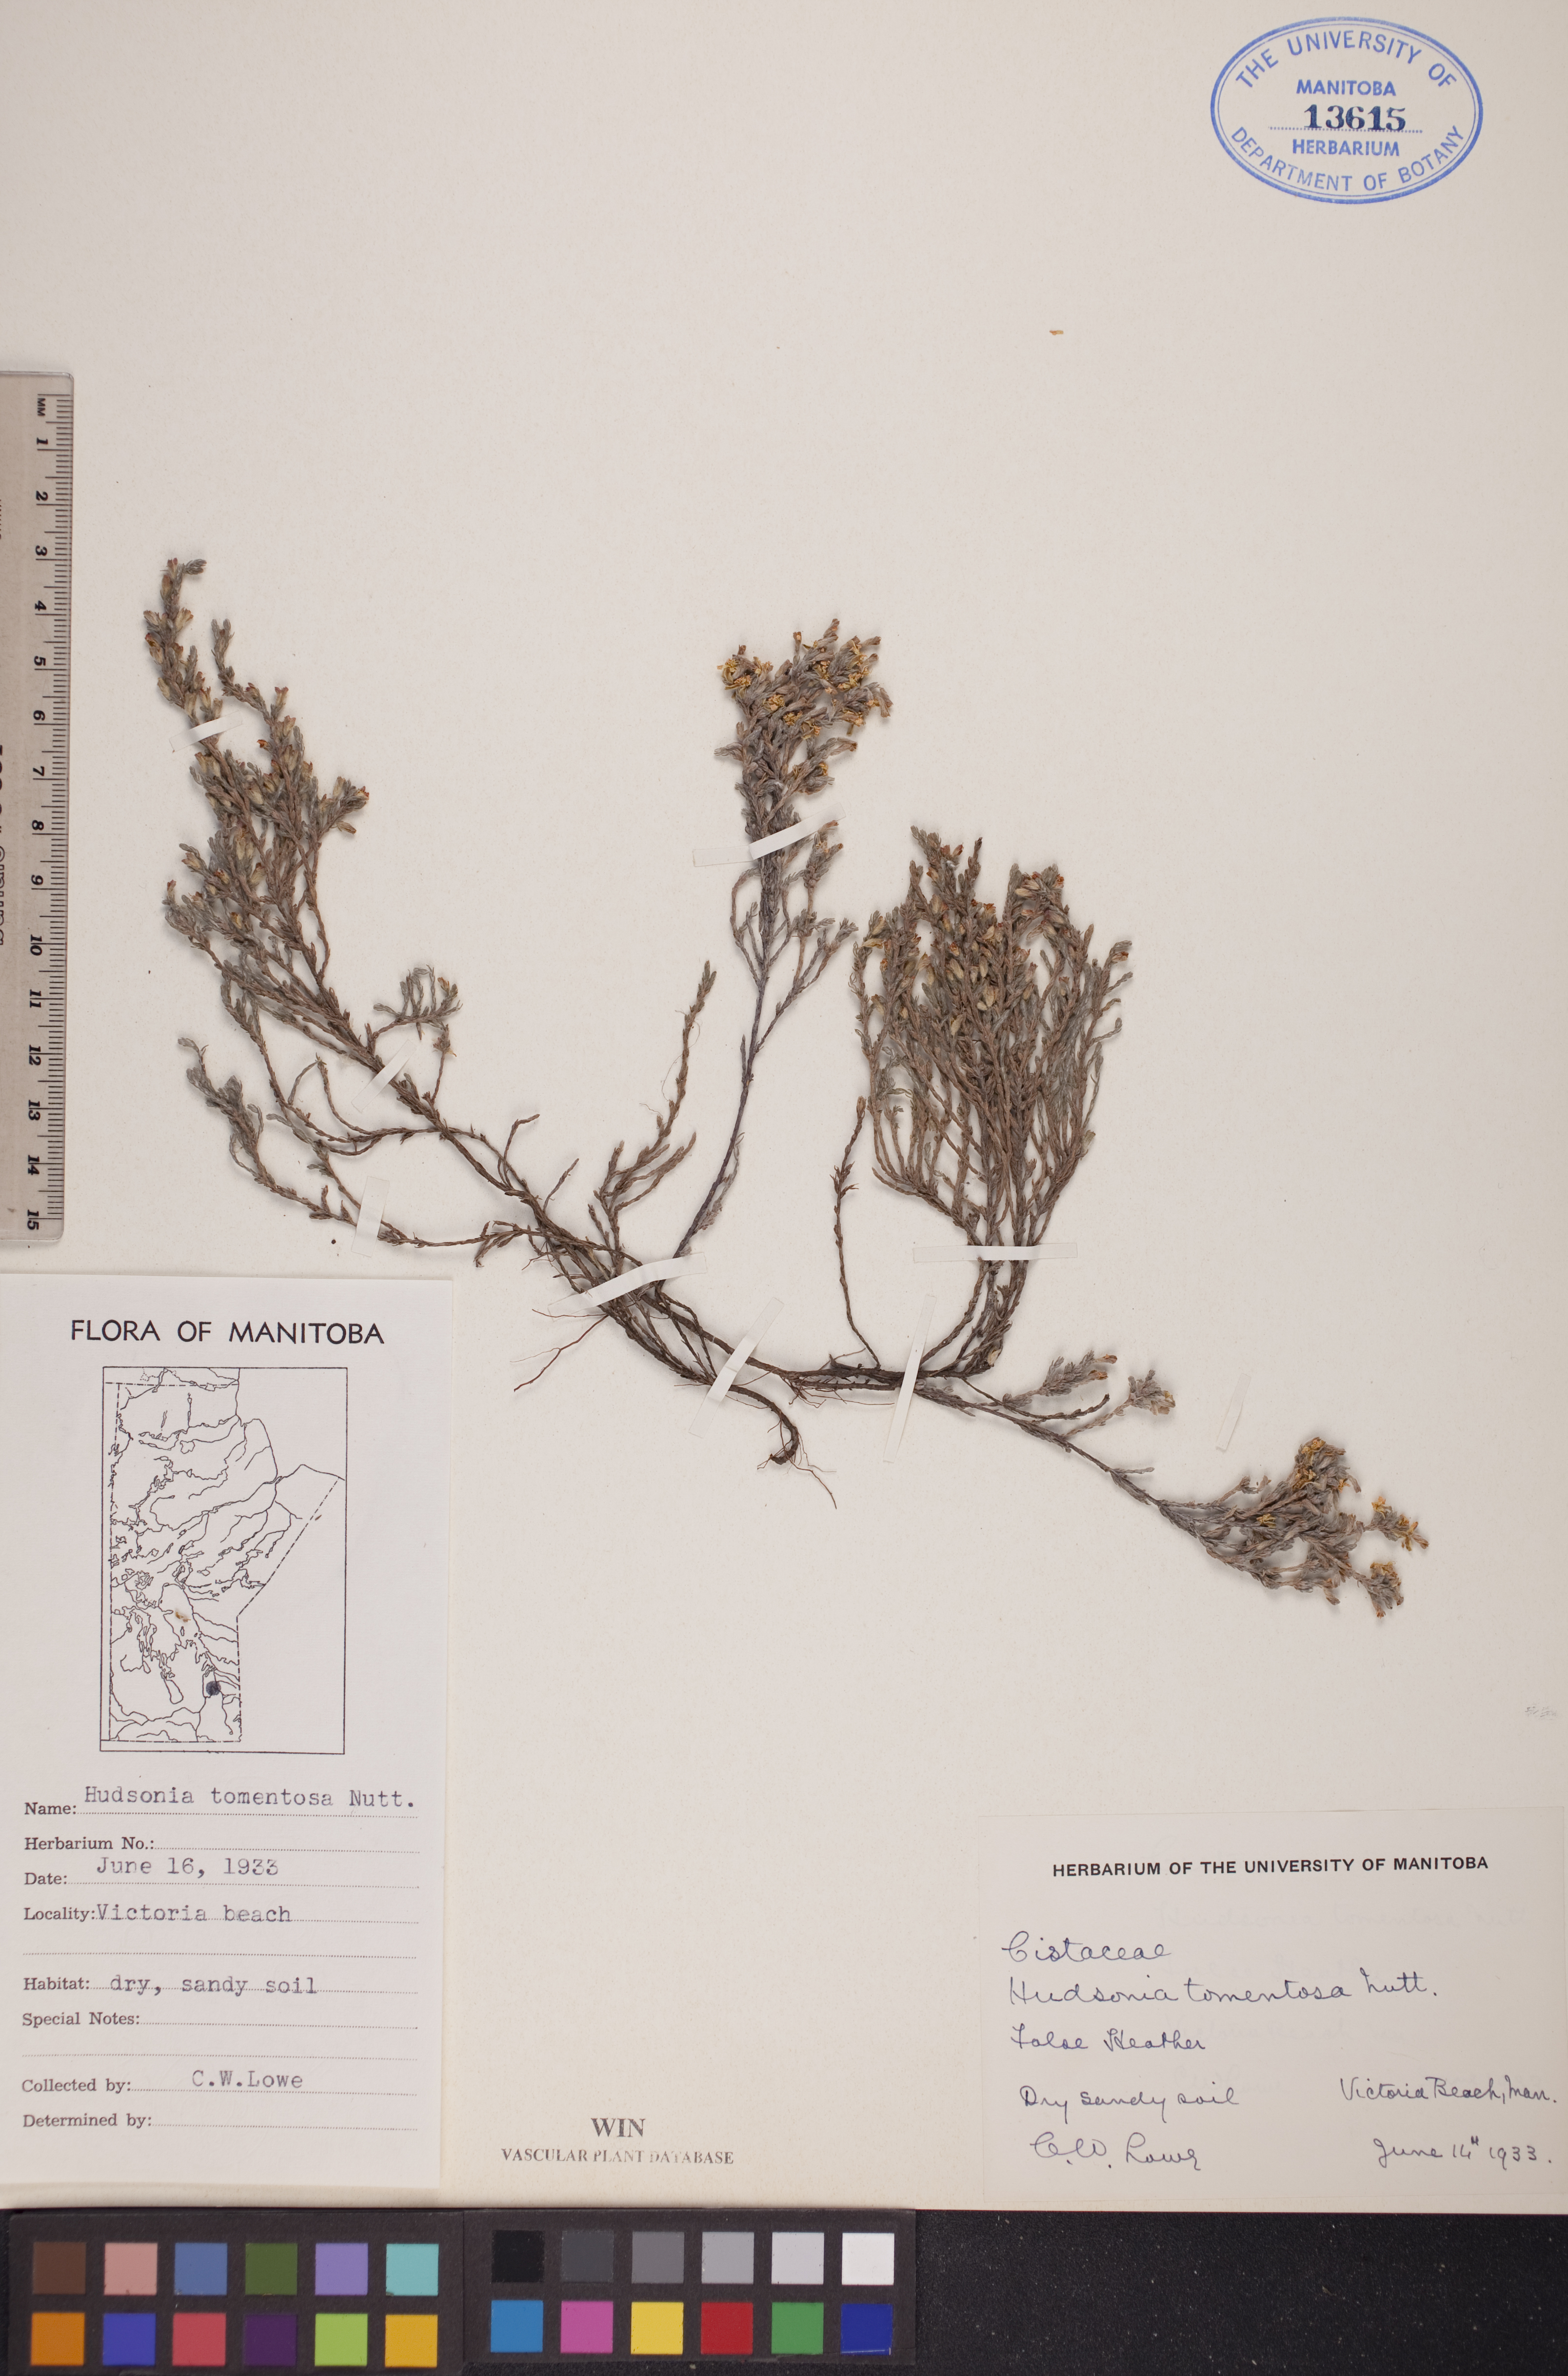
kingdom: Plantae
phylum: Tracheophyta
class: Magnoliopsida
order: Malvales
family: Cistaceae
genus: Hudsonia
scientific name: Hudsonia tomentosa
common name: Beach-heath
